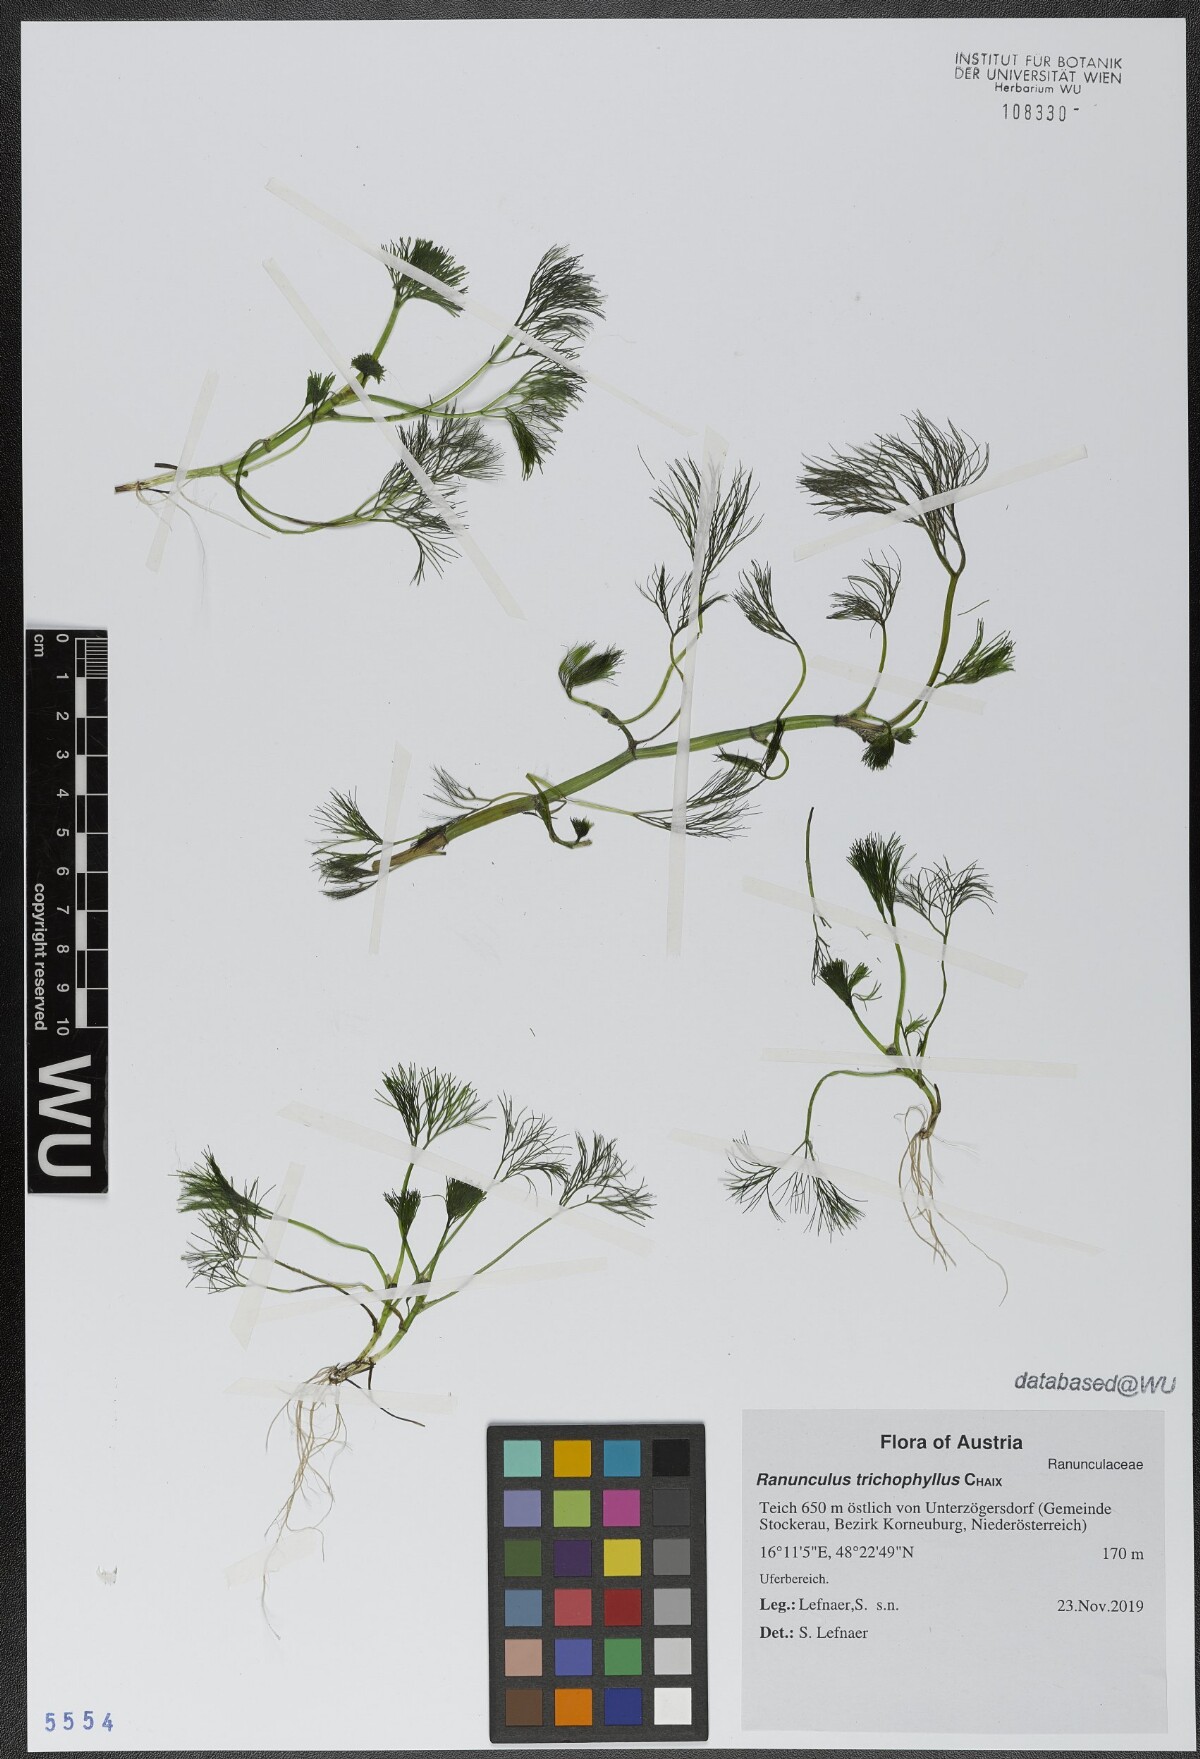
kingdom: Plantae
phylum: Tracheophyta
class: Magnoliopsida
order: Ranunculales
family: Ranunculaceae
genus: Ranunculus
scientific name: Ranunculus trichophyllus
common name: Thread-leaved water-crowfoot
